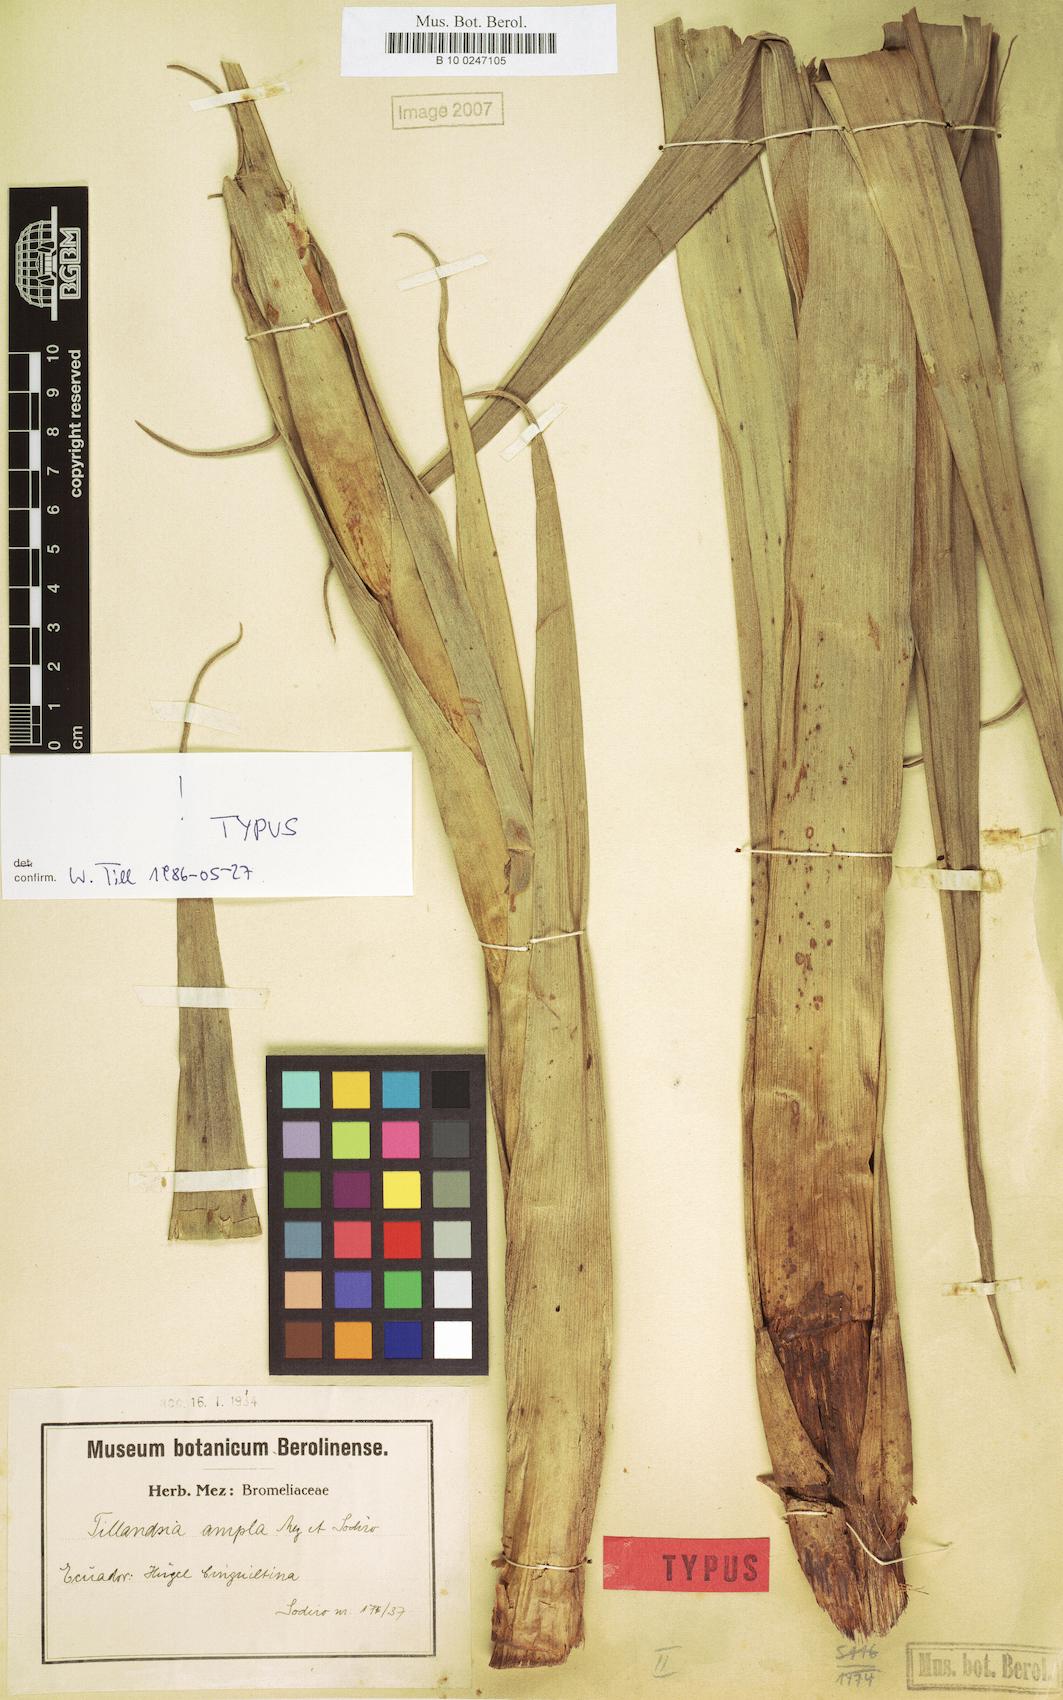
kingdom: Plantae
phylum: Tracheophyta
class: Liliopsida
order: Poales
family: Bromeliaceae
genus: Tillandsia
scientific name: Tillandsia lajensis
